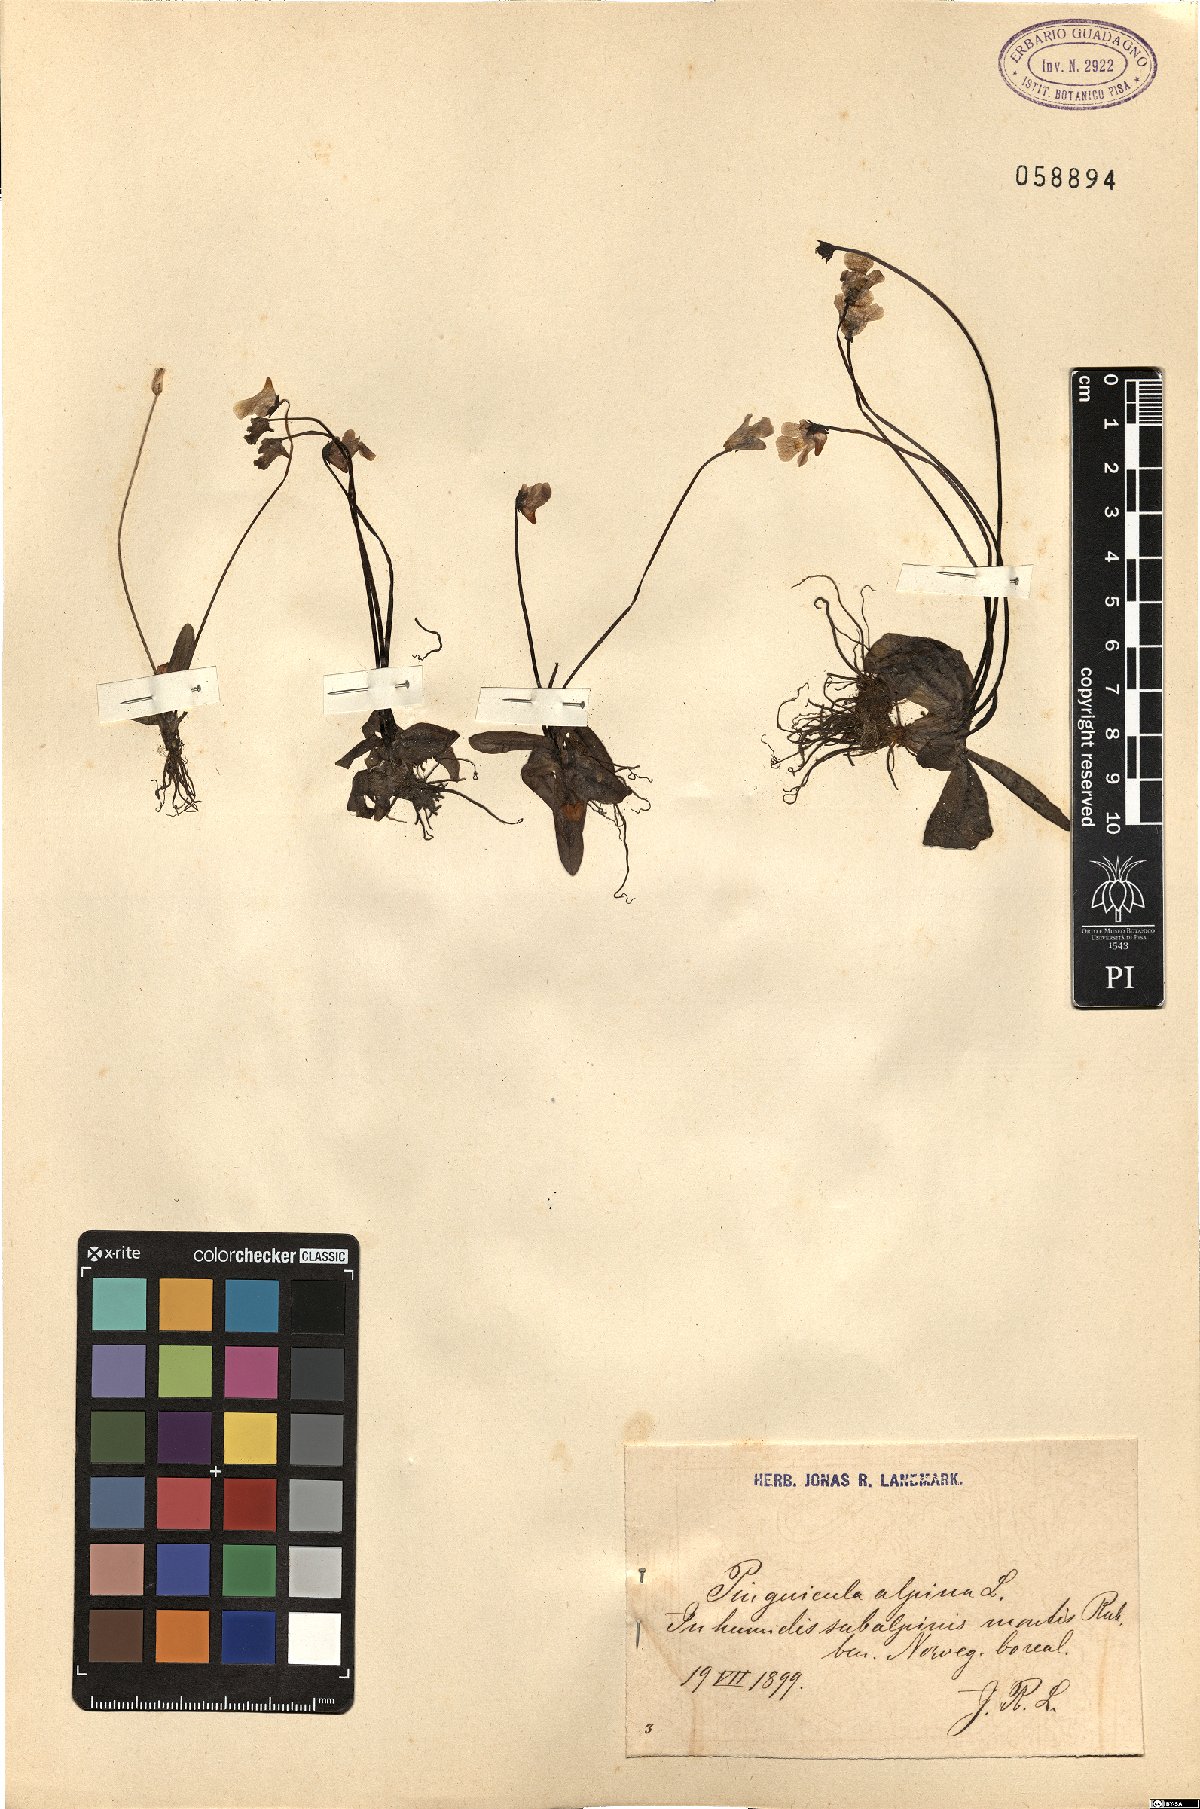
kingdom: Plantae
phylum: Tracheophyta
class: Magnoliopsida
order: Lamiales
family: Lentibulariaceae
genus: Pinguicula
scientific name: Pinguicula alpina
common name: Alpine butterwort
